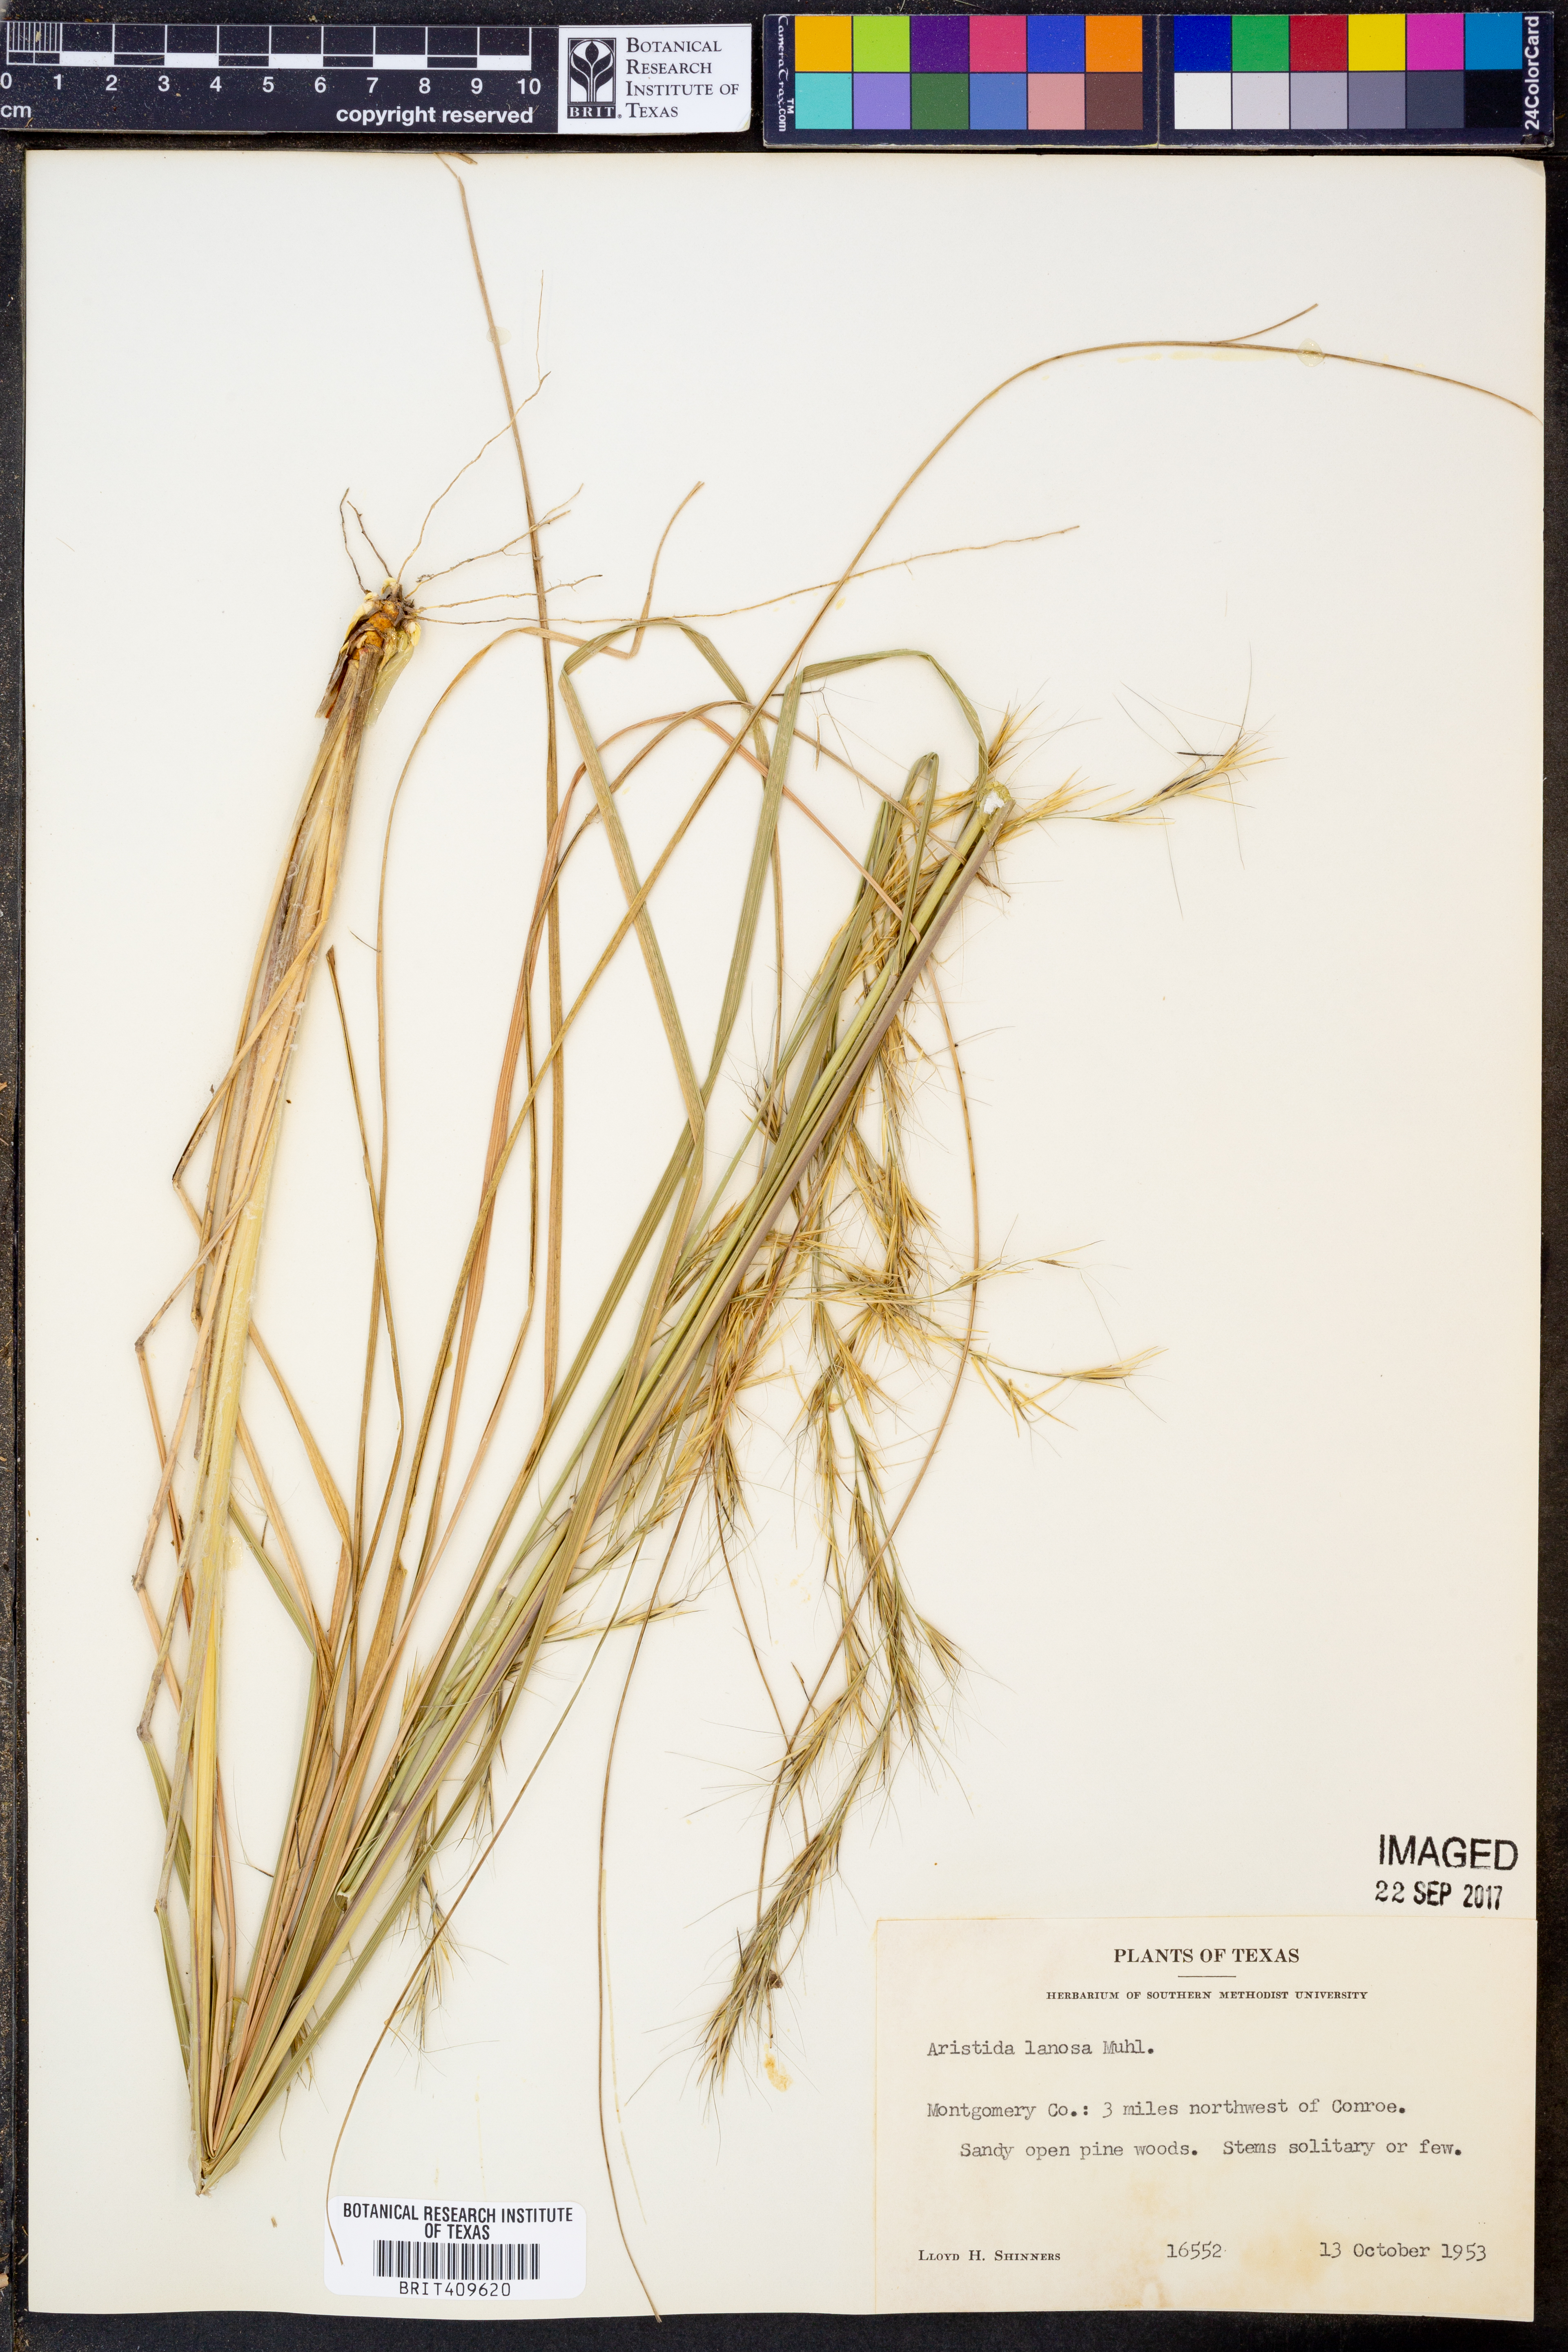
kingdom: Plantae
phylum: Tracheophyta
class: Liliopsida
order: Poales
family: Poaceae
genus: Aristida
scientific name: Aristida lanosa
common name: Woolly three-awn
